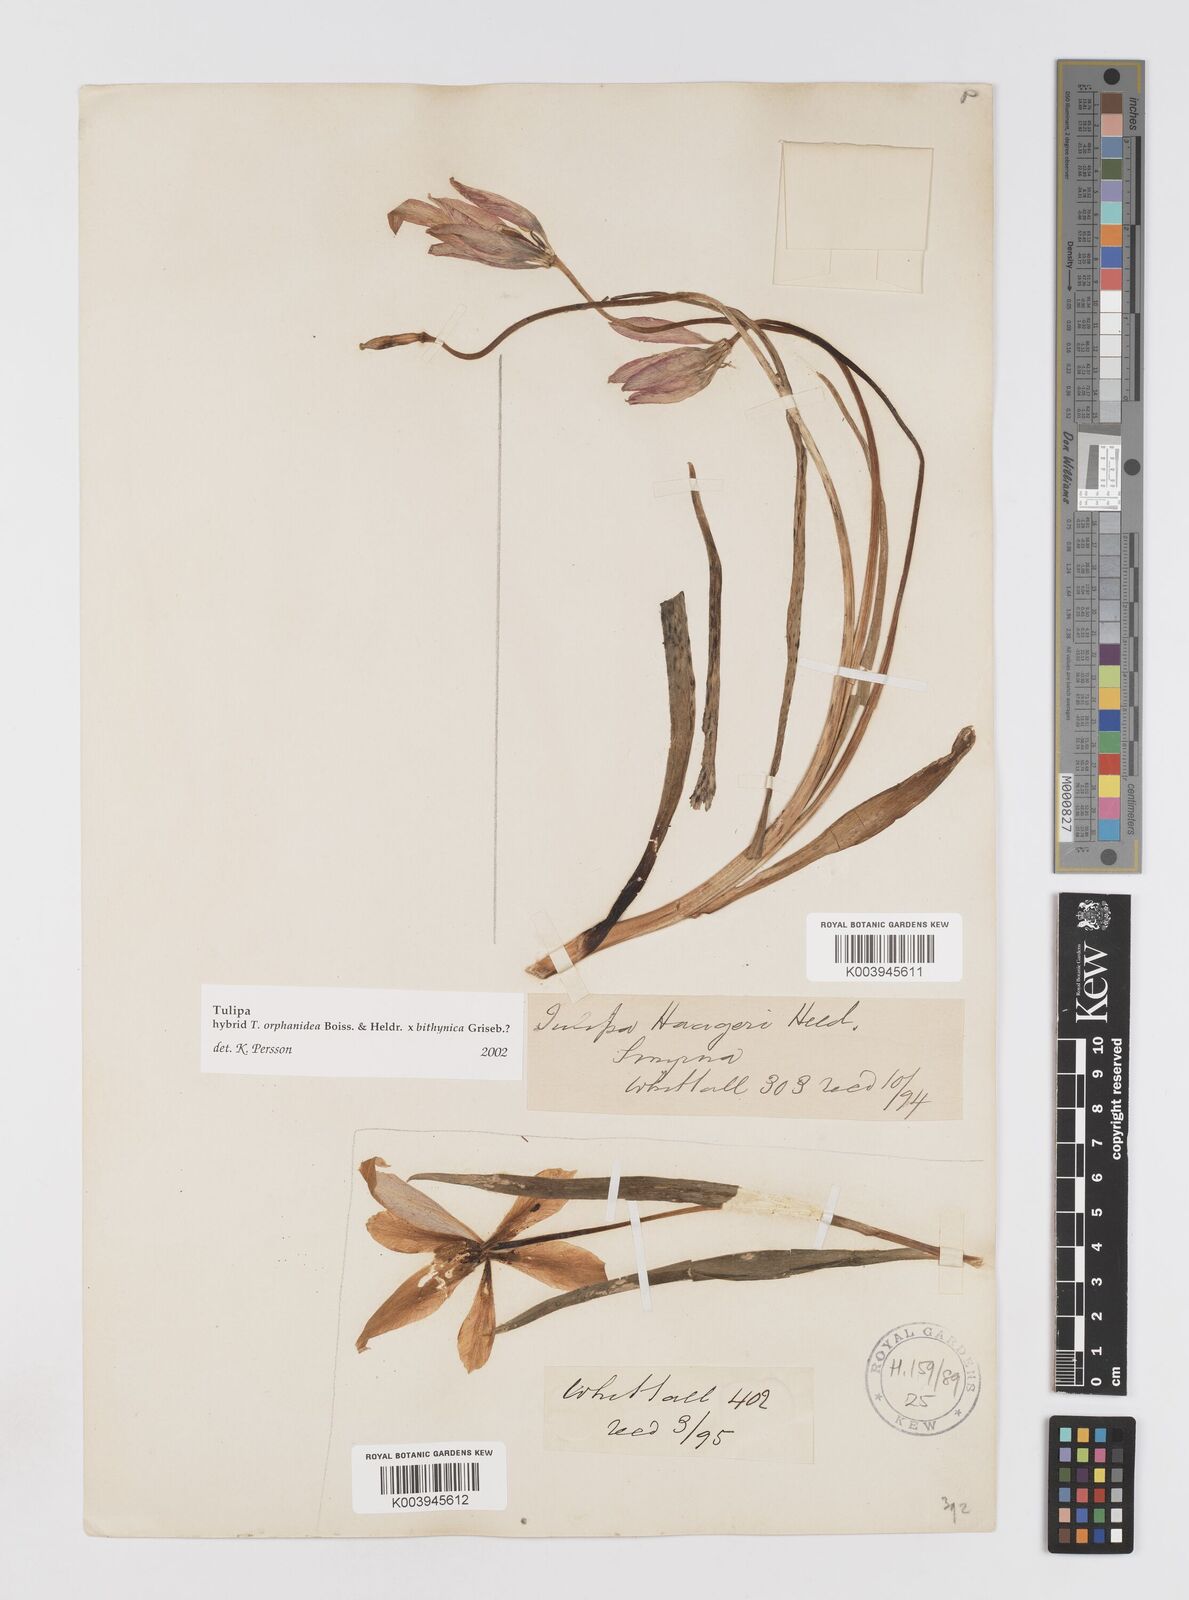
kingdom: Plantae
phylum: Tracheophyta
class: Liliopsida
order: Liliales
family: Liliaceae
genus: Tulipa
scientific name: Tulipa orphanidea
